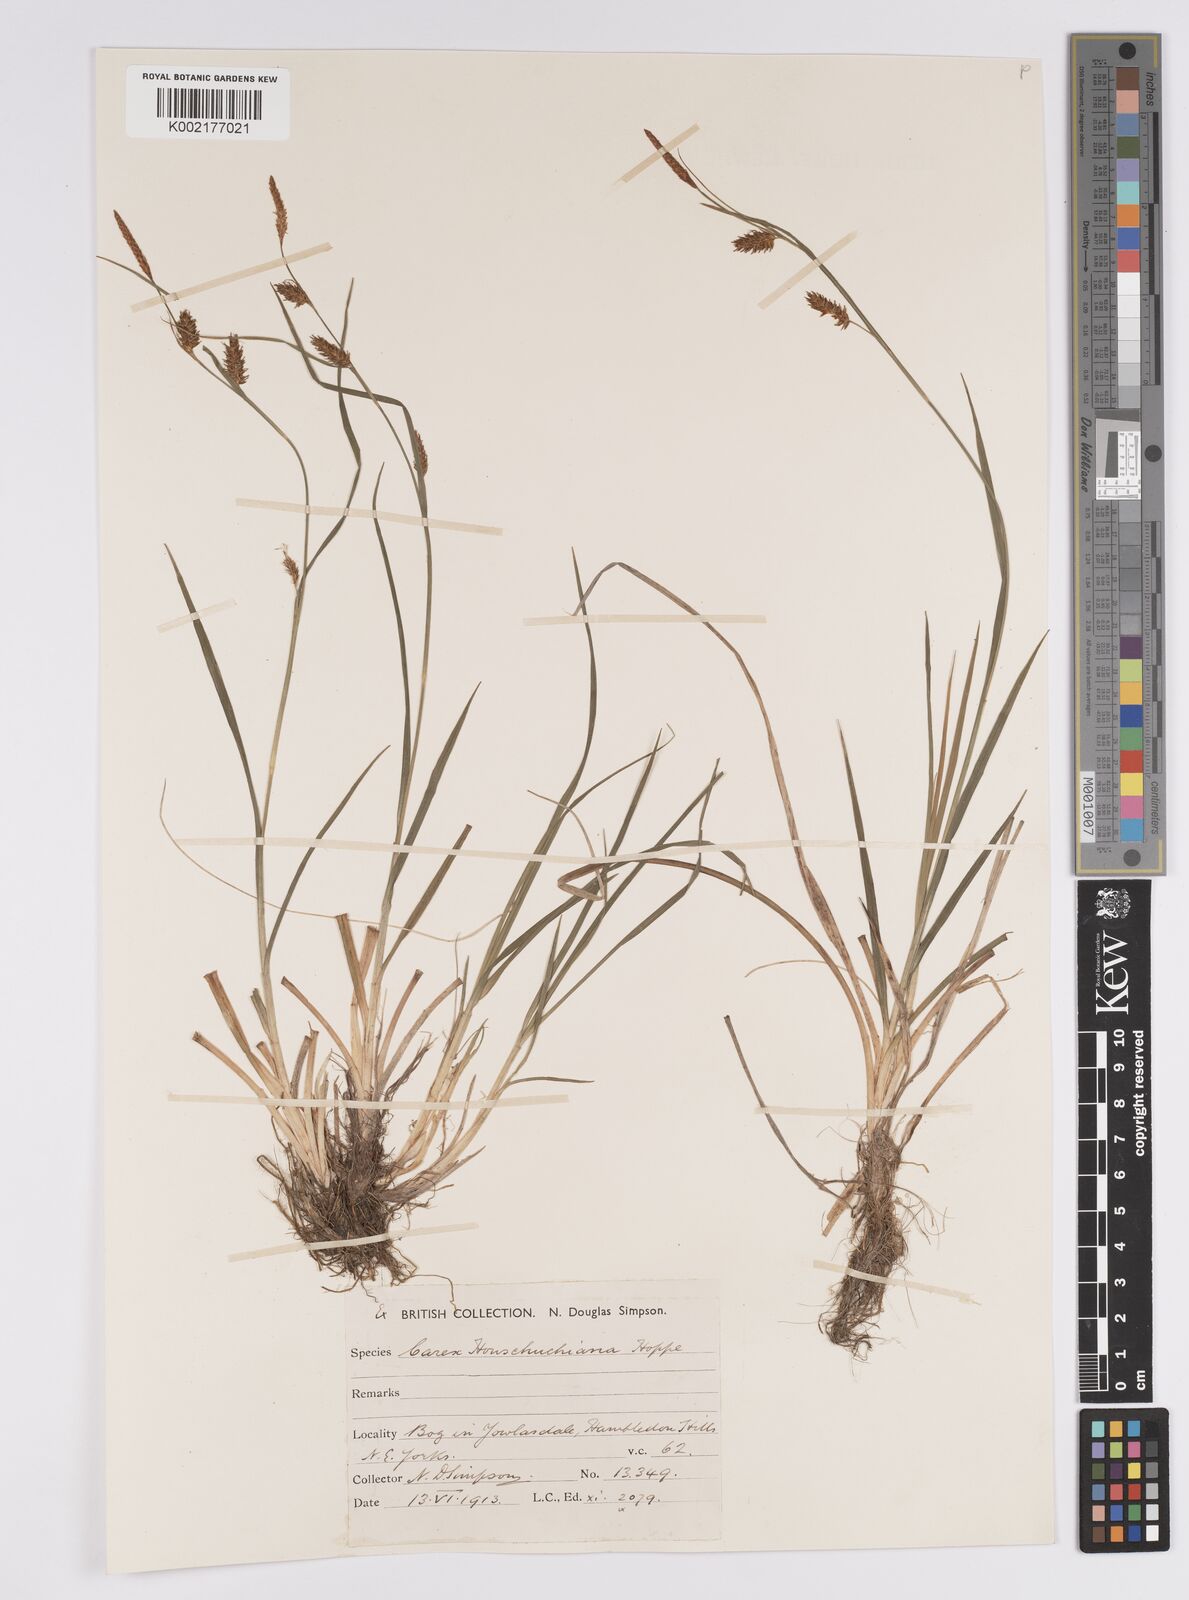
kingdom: Plantae
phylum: Tracheophyta
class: Liliopsida
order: Poales
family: Cyperaceae
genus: Carex
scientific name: Carex hostiana
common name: Tawny sedge
